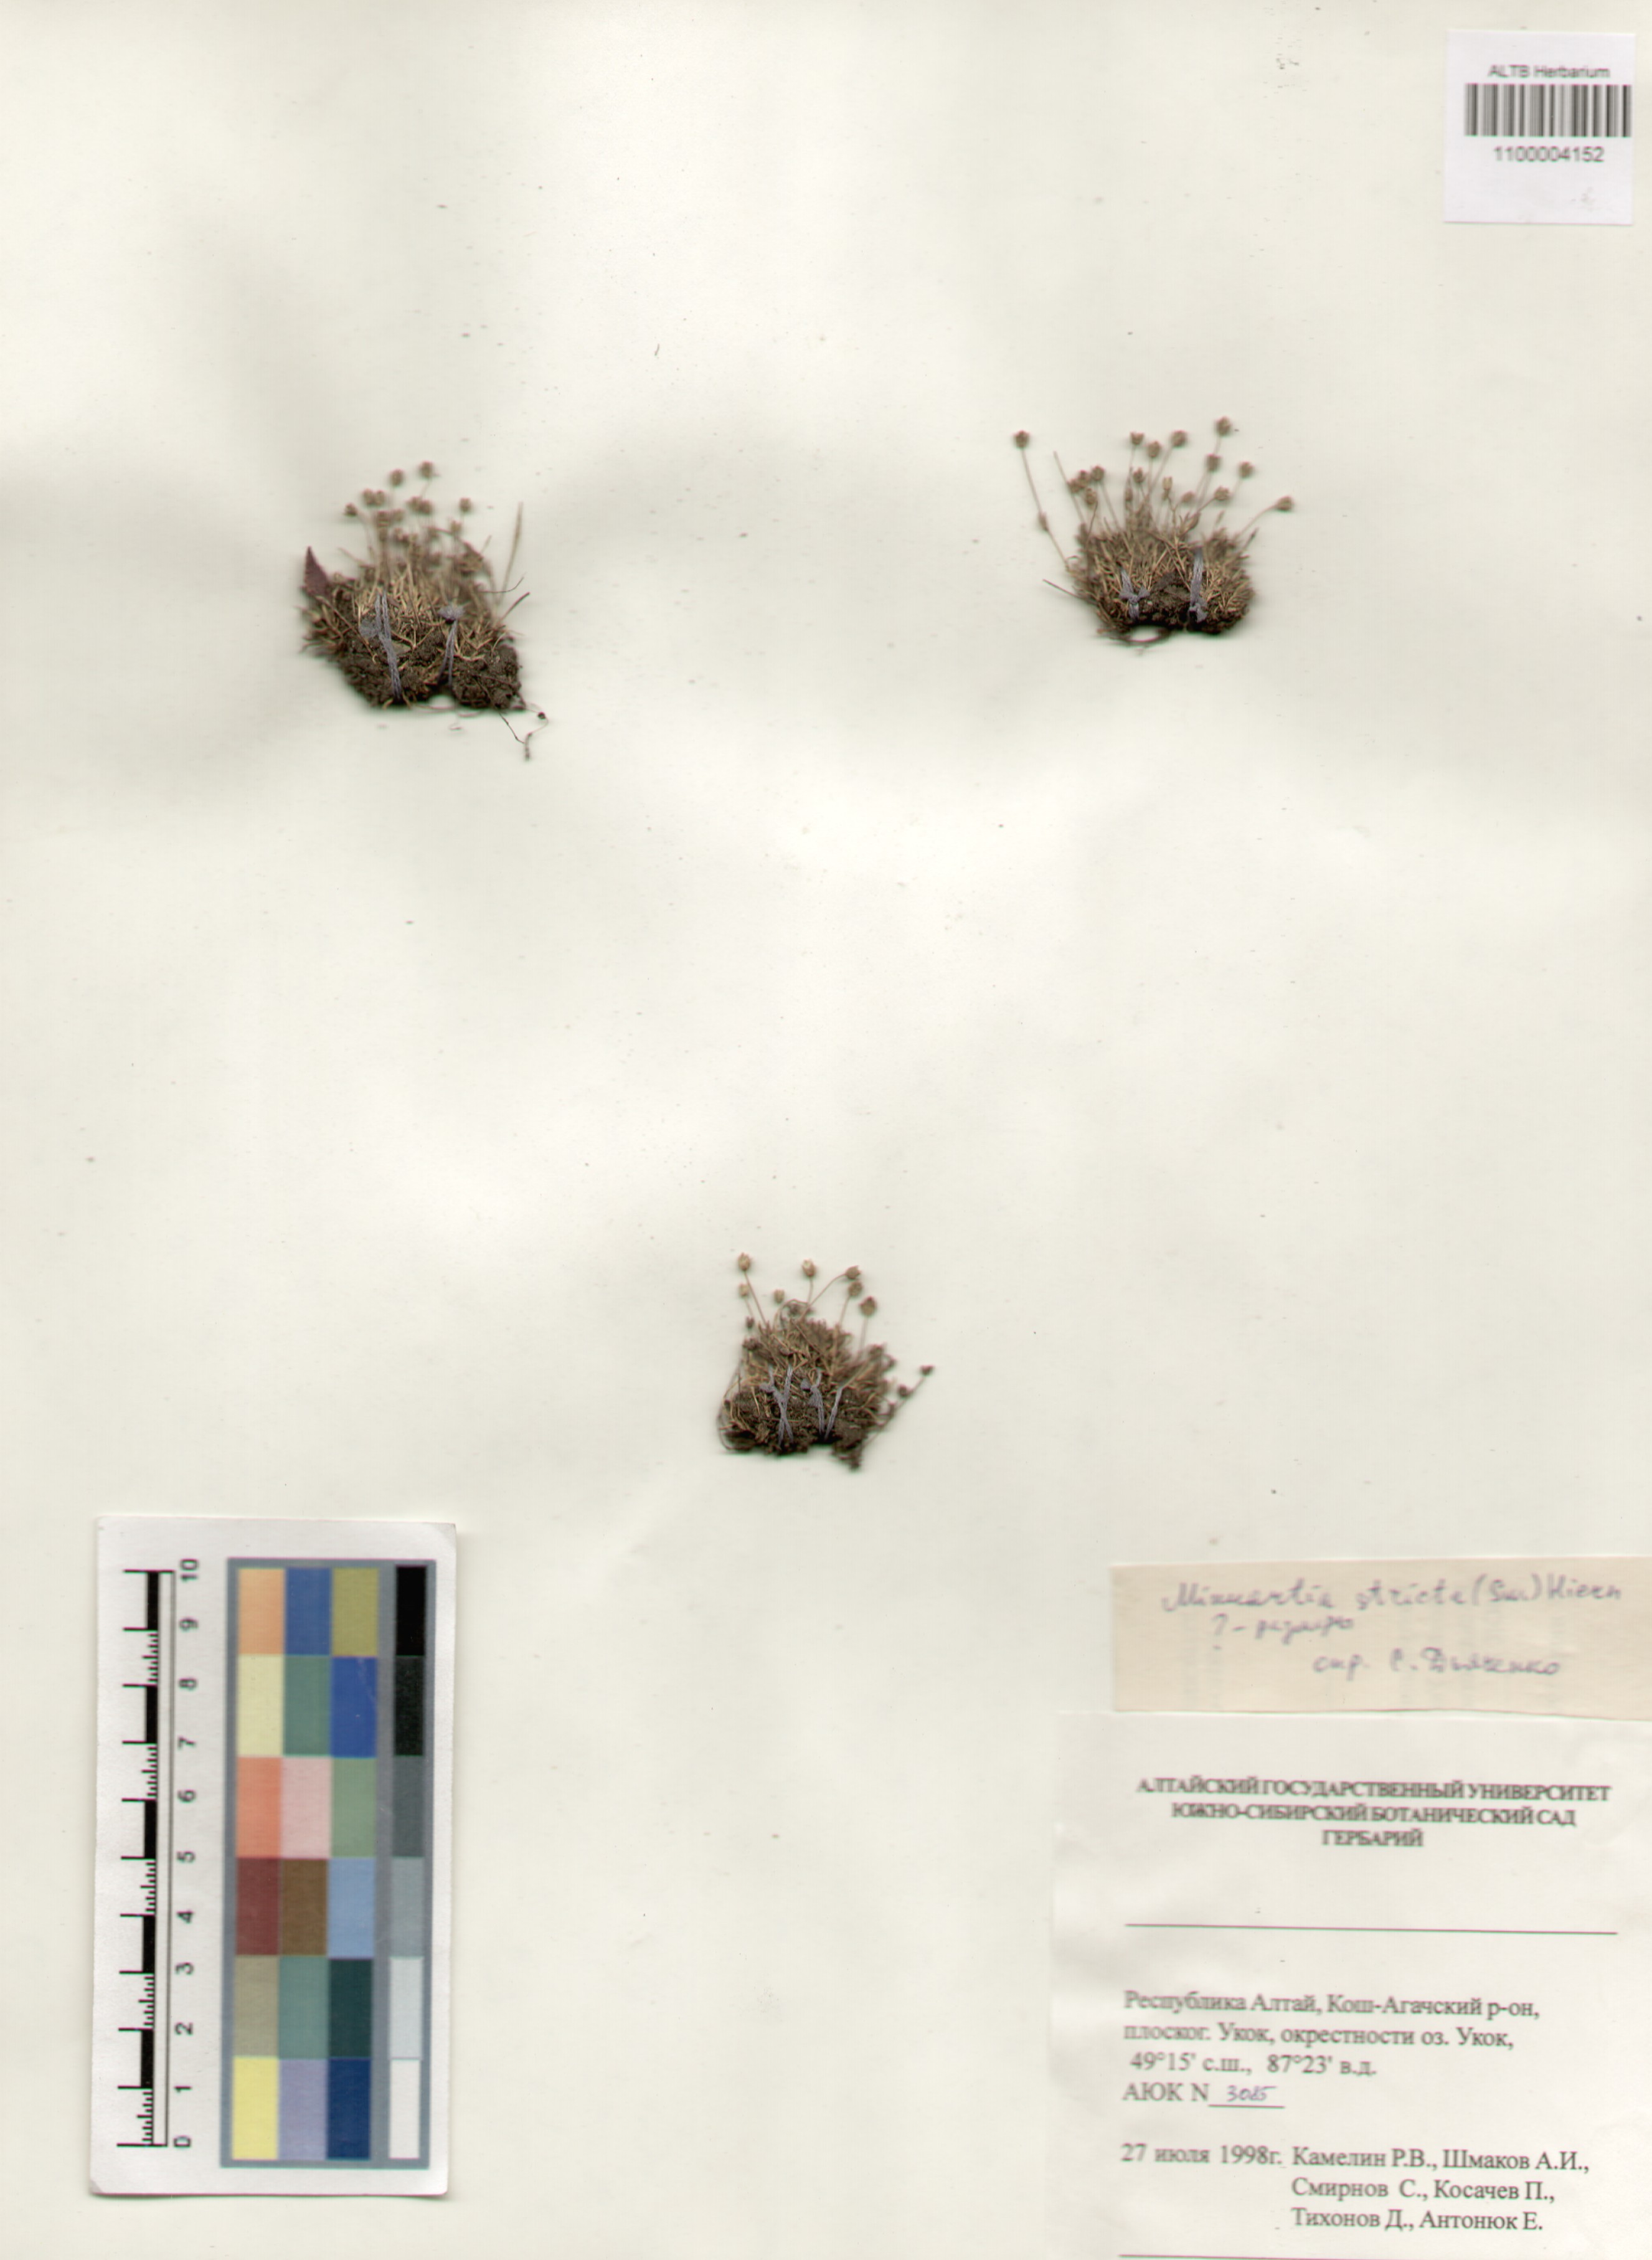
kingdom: Plantae
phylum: Tracheophyta
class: Magnoliopsida
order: Caryophyllales
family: Caryophyllaceae
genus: Sabulina
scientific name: Sabulina stricta
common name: Bog sandwort
